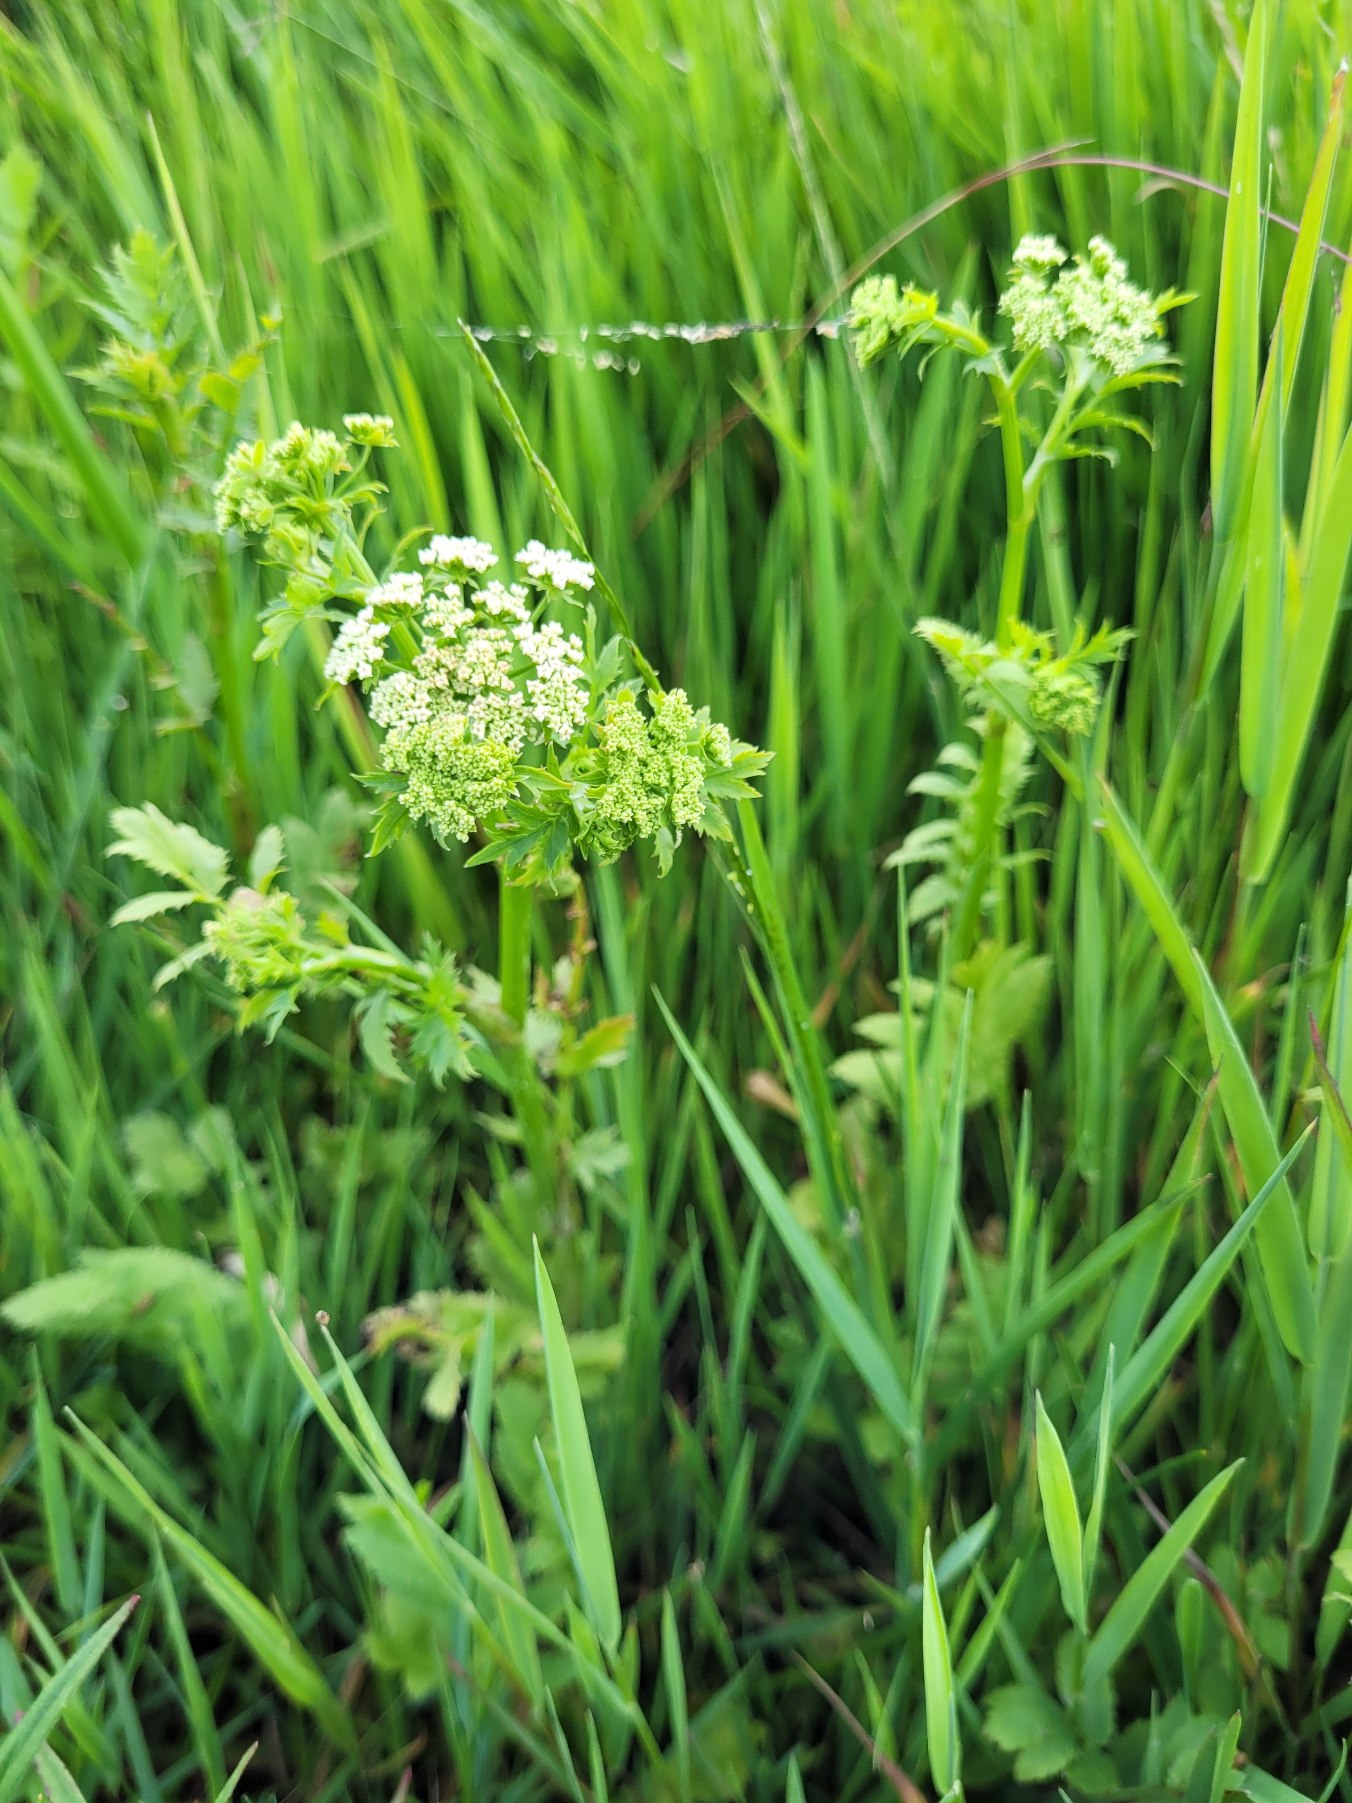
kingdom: Plantae
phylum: Tracheophyta
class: Magnoliopsida
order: Apiales
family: Apiaceae
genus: Berula
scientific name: Berula erecta
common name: Sideskærm
